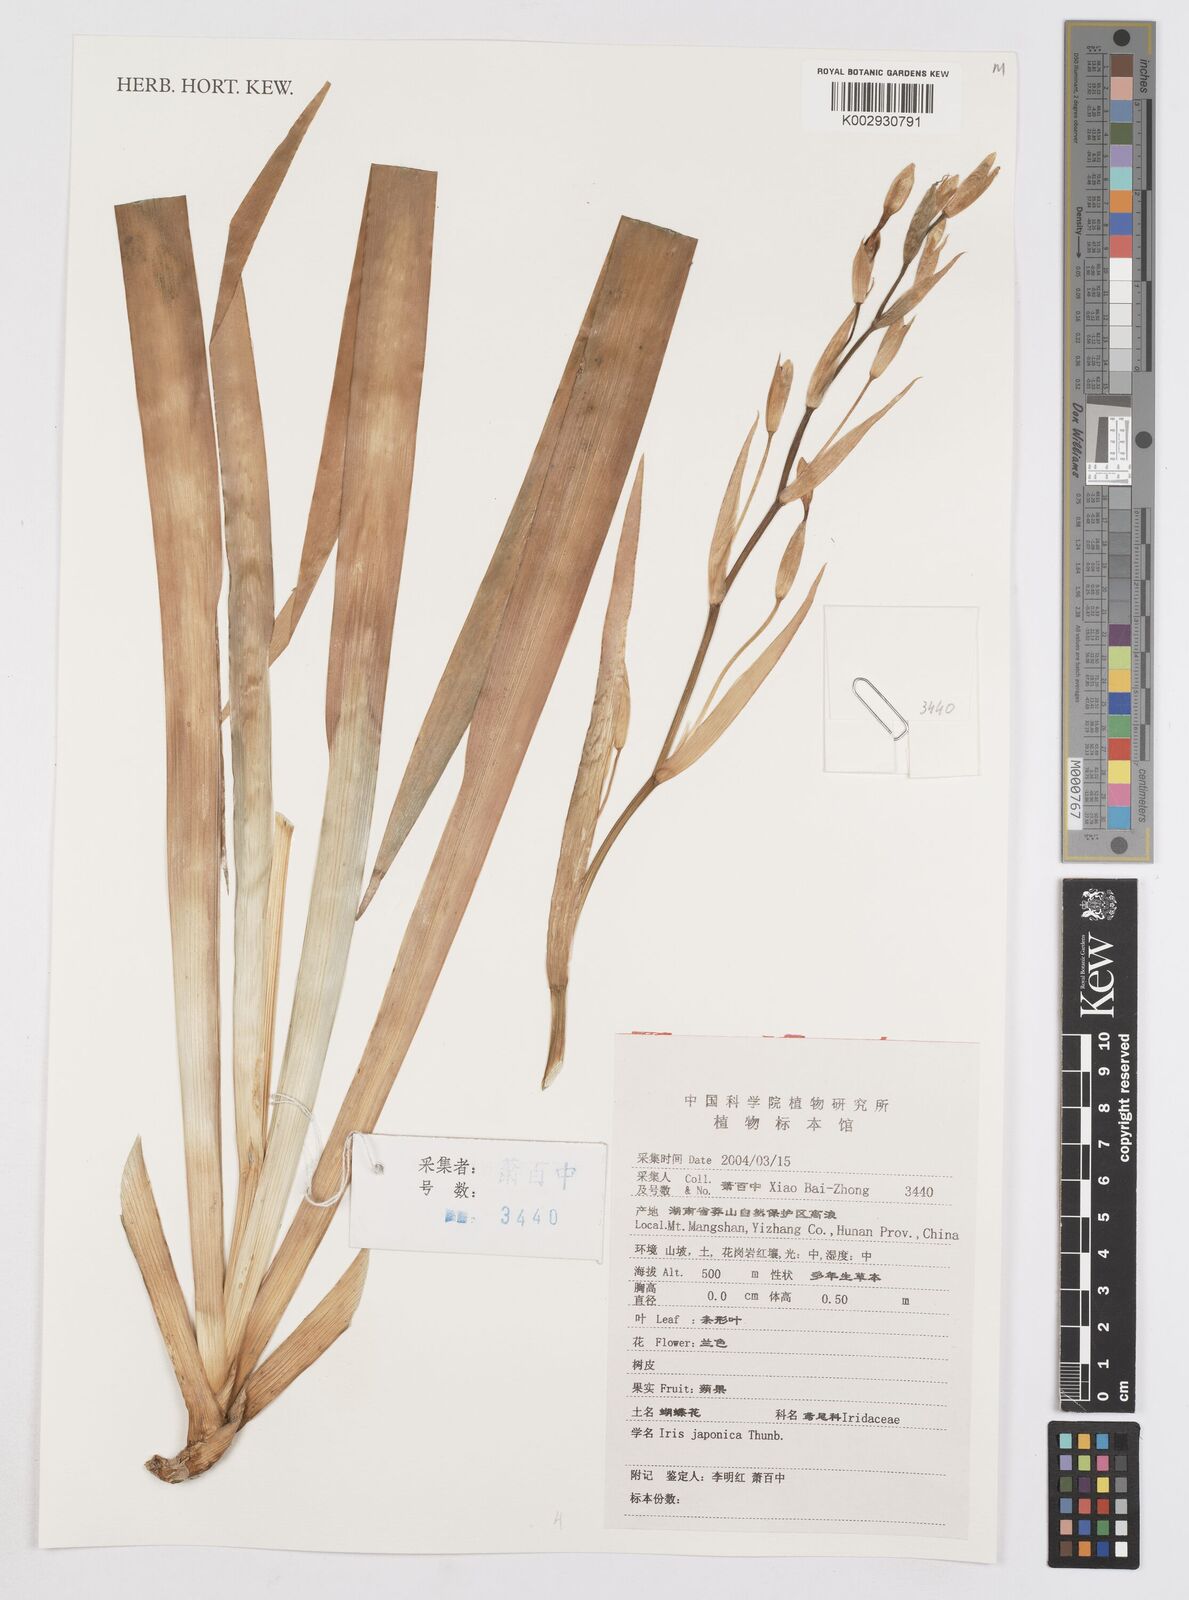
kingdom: Plantae
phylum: Tracheophyta
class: Liliopsida
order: Asparagales
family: Iridaceae
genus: Iris
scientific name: Iris japonica
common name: Butterfly-flower
